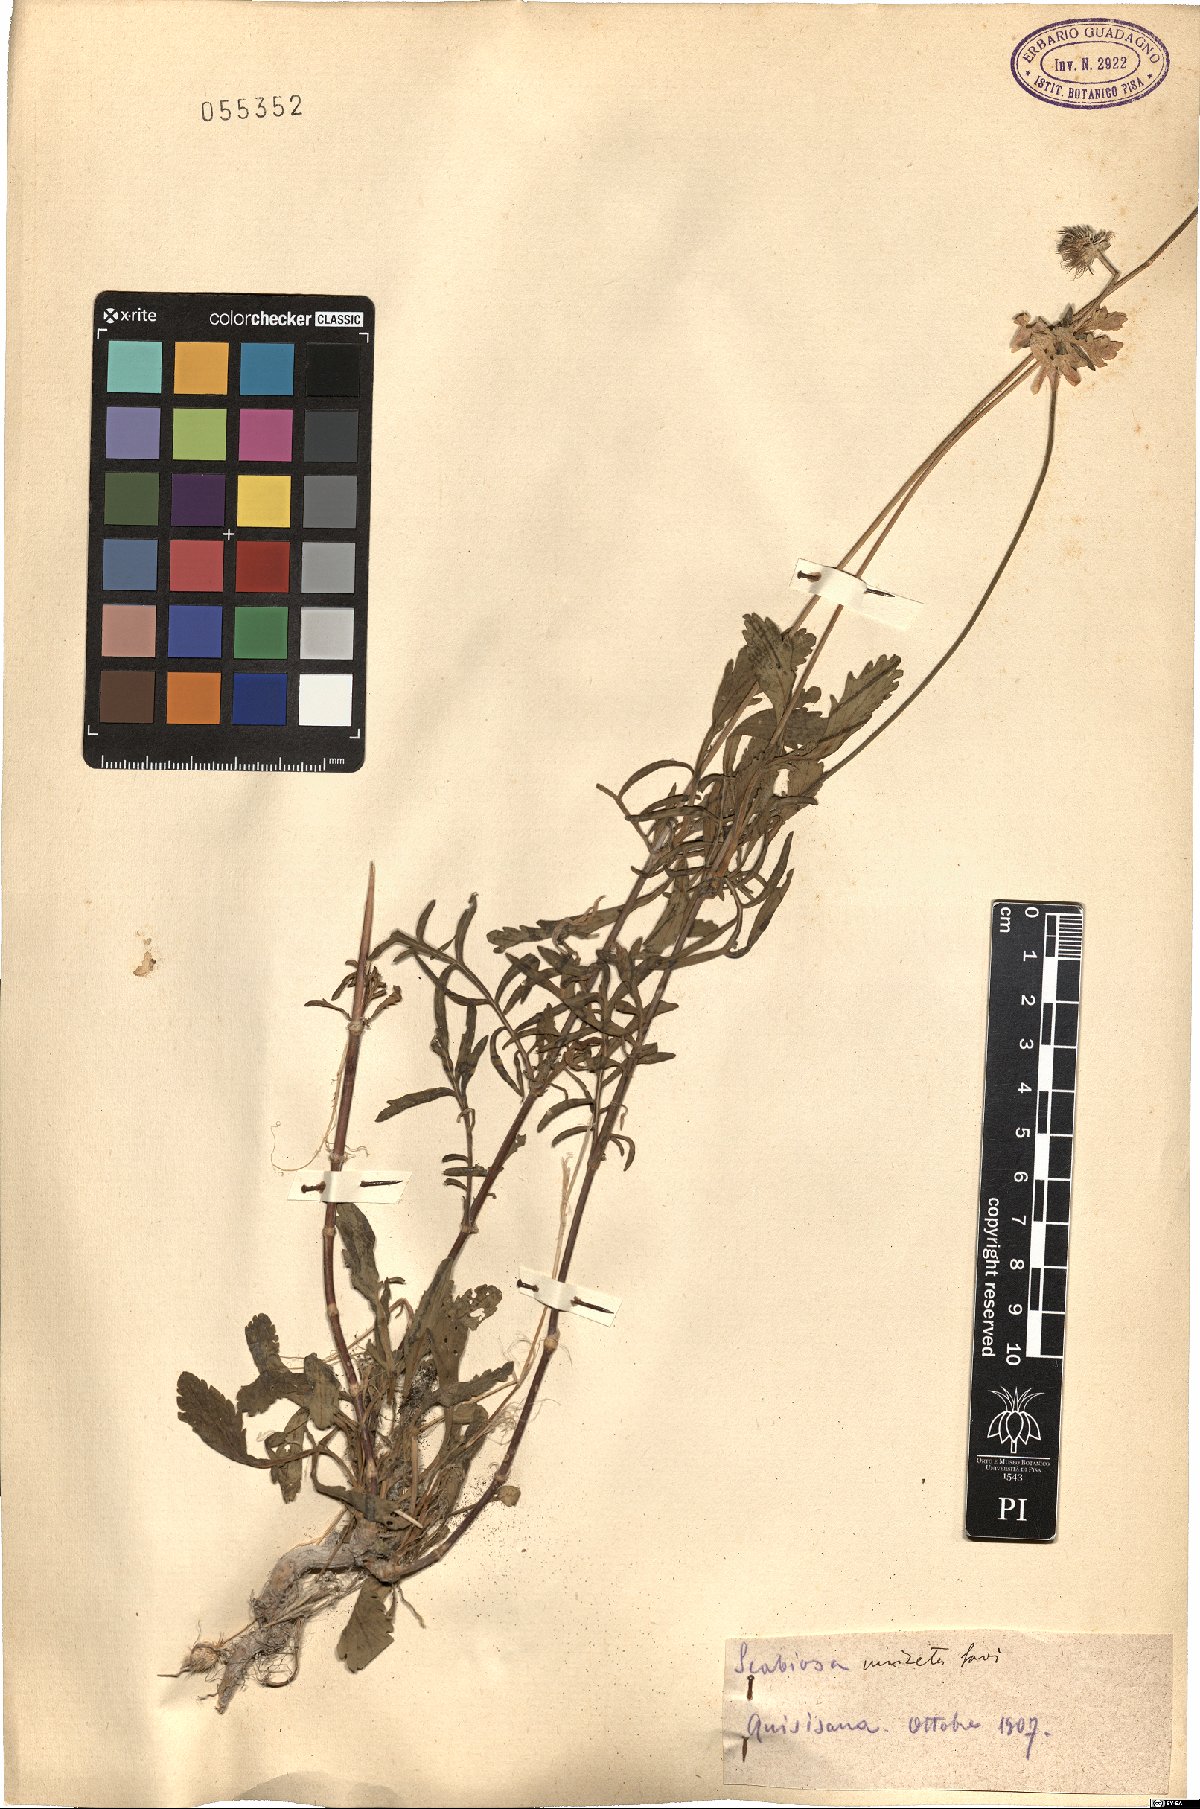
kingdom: Plantae
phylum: Tracheophyta
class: Magnoliopsida
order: Dipsacales
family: Caprifoliaceae
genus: Scabiosa
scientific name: Scabiosa columbaria
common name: Small scabious
